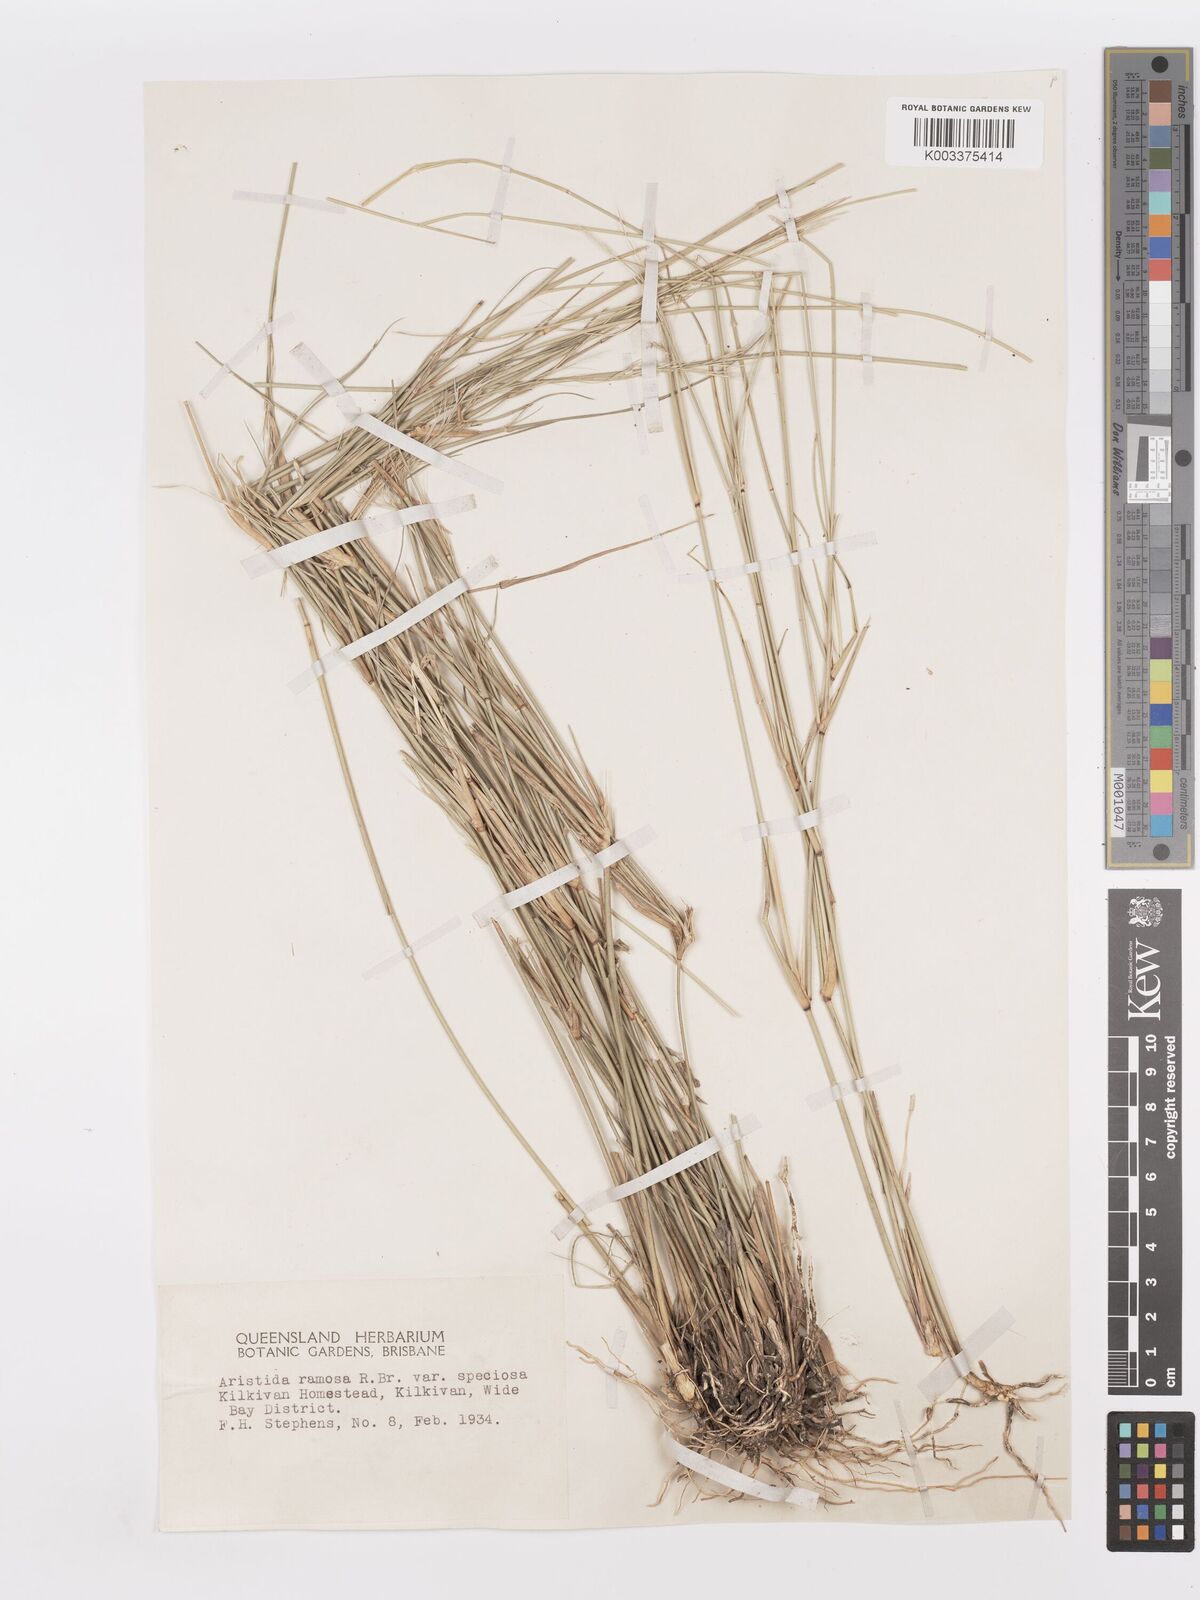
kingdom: Plantae
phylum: Tracheophyta
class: Liliopsida
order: Poales
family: Poaceae
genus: Aristida
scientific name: Aristida ramosa
